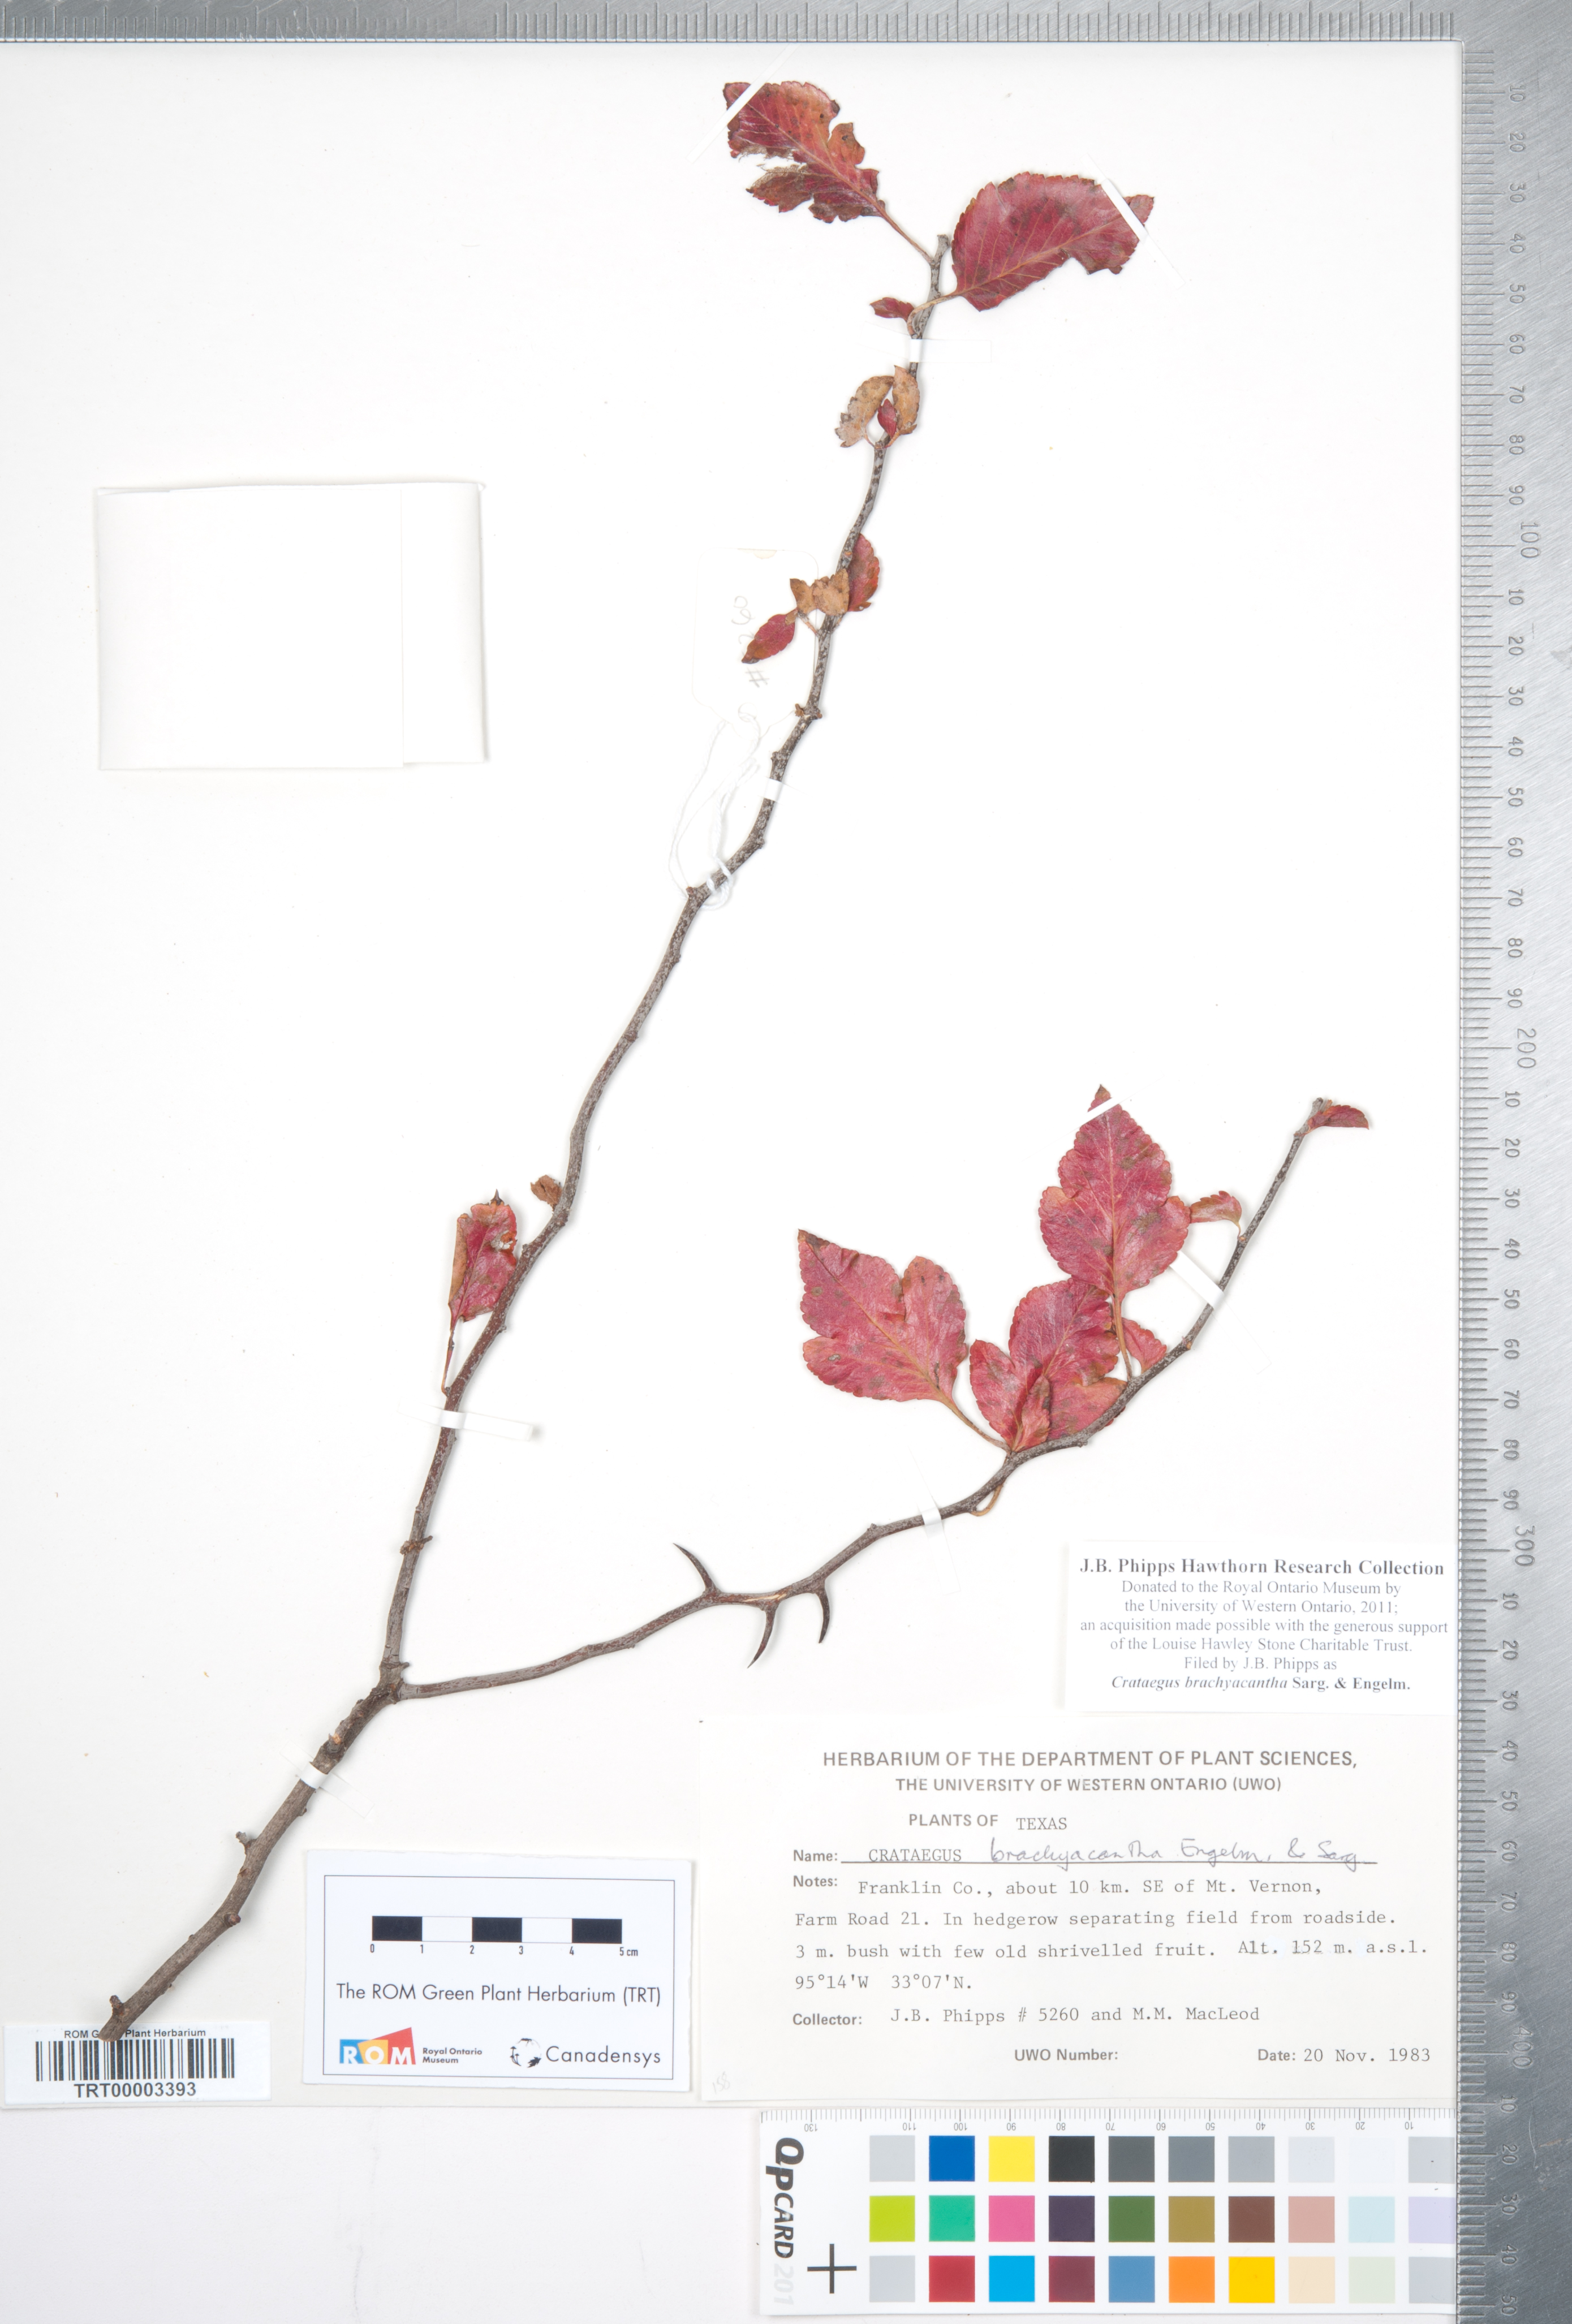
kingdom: Plantae
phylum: Tracheophyta
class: Magnoliopsida
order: Rosales
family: Rosaceae
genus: Crataegus
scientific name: Crataegus brachyacantha
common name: Blueberry-hawthorn
